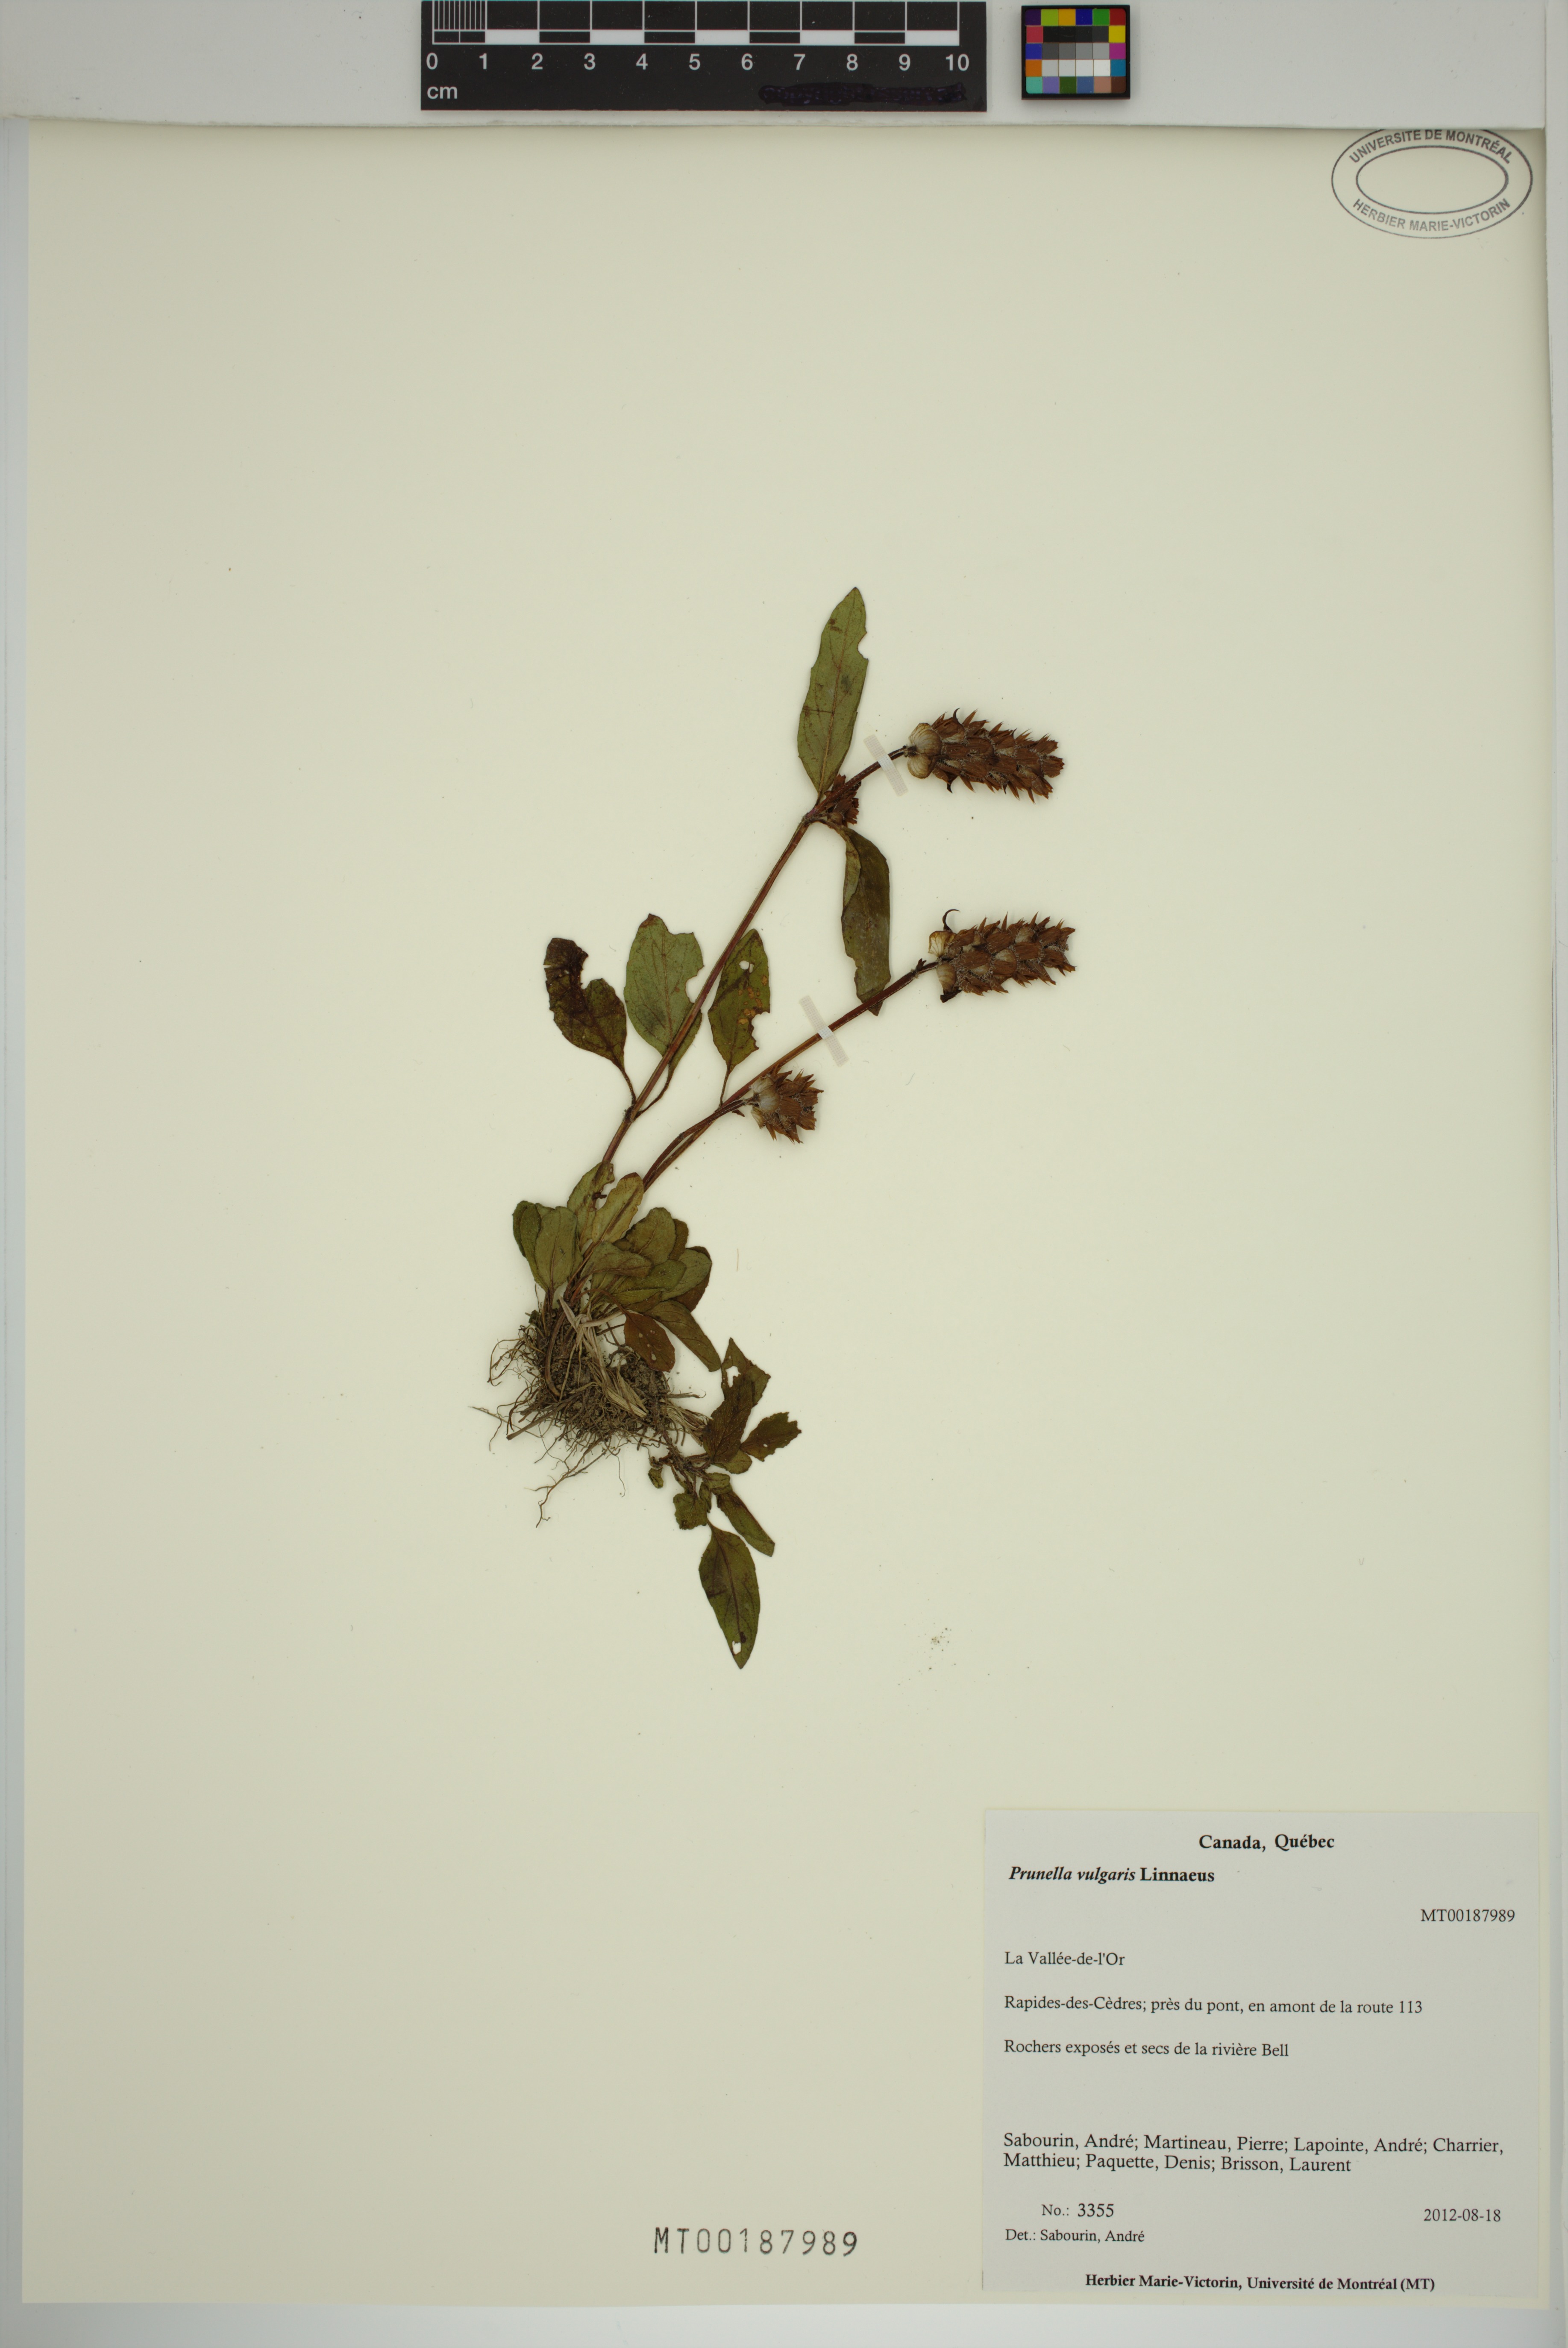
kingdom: Plantae
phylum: Tracheophyta
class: Magnoliopsida
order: Lamiales
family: Lamiaceae
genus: Prunella
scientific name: Prunella vulgaris
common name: Heal-all
